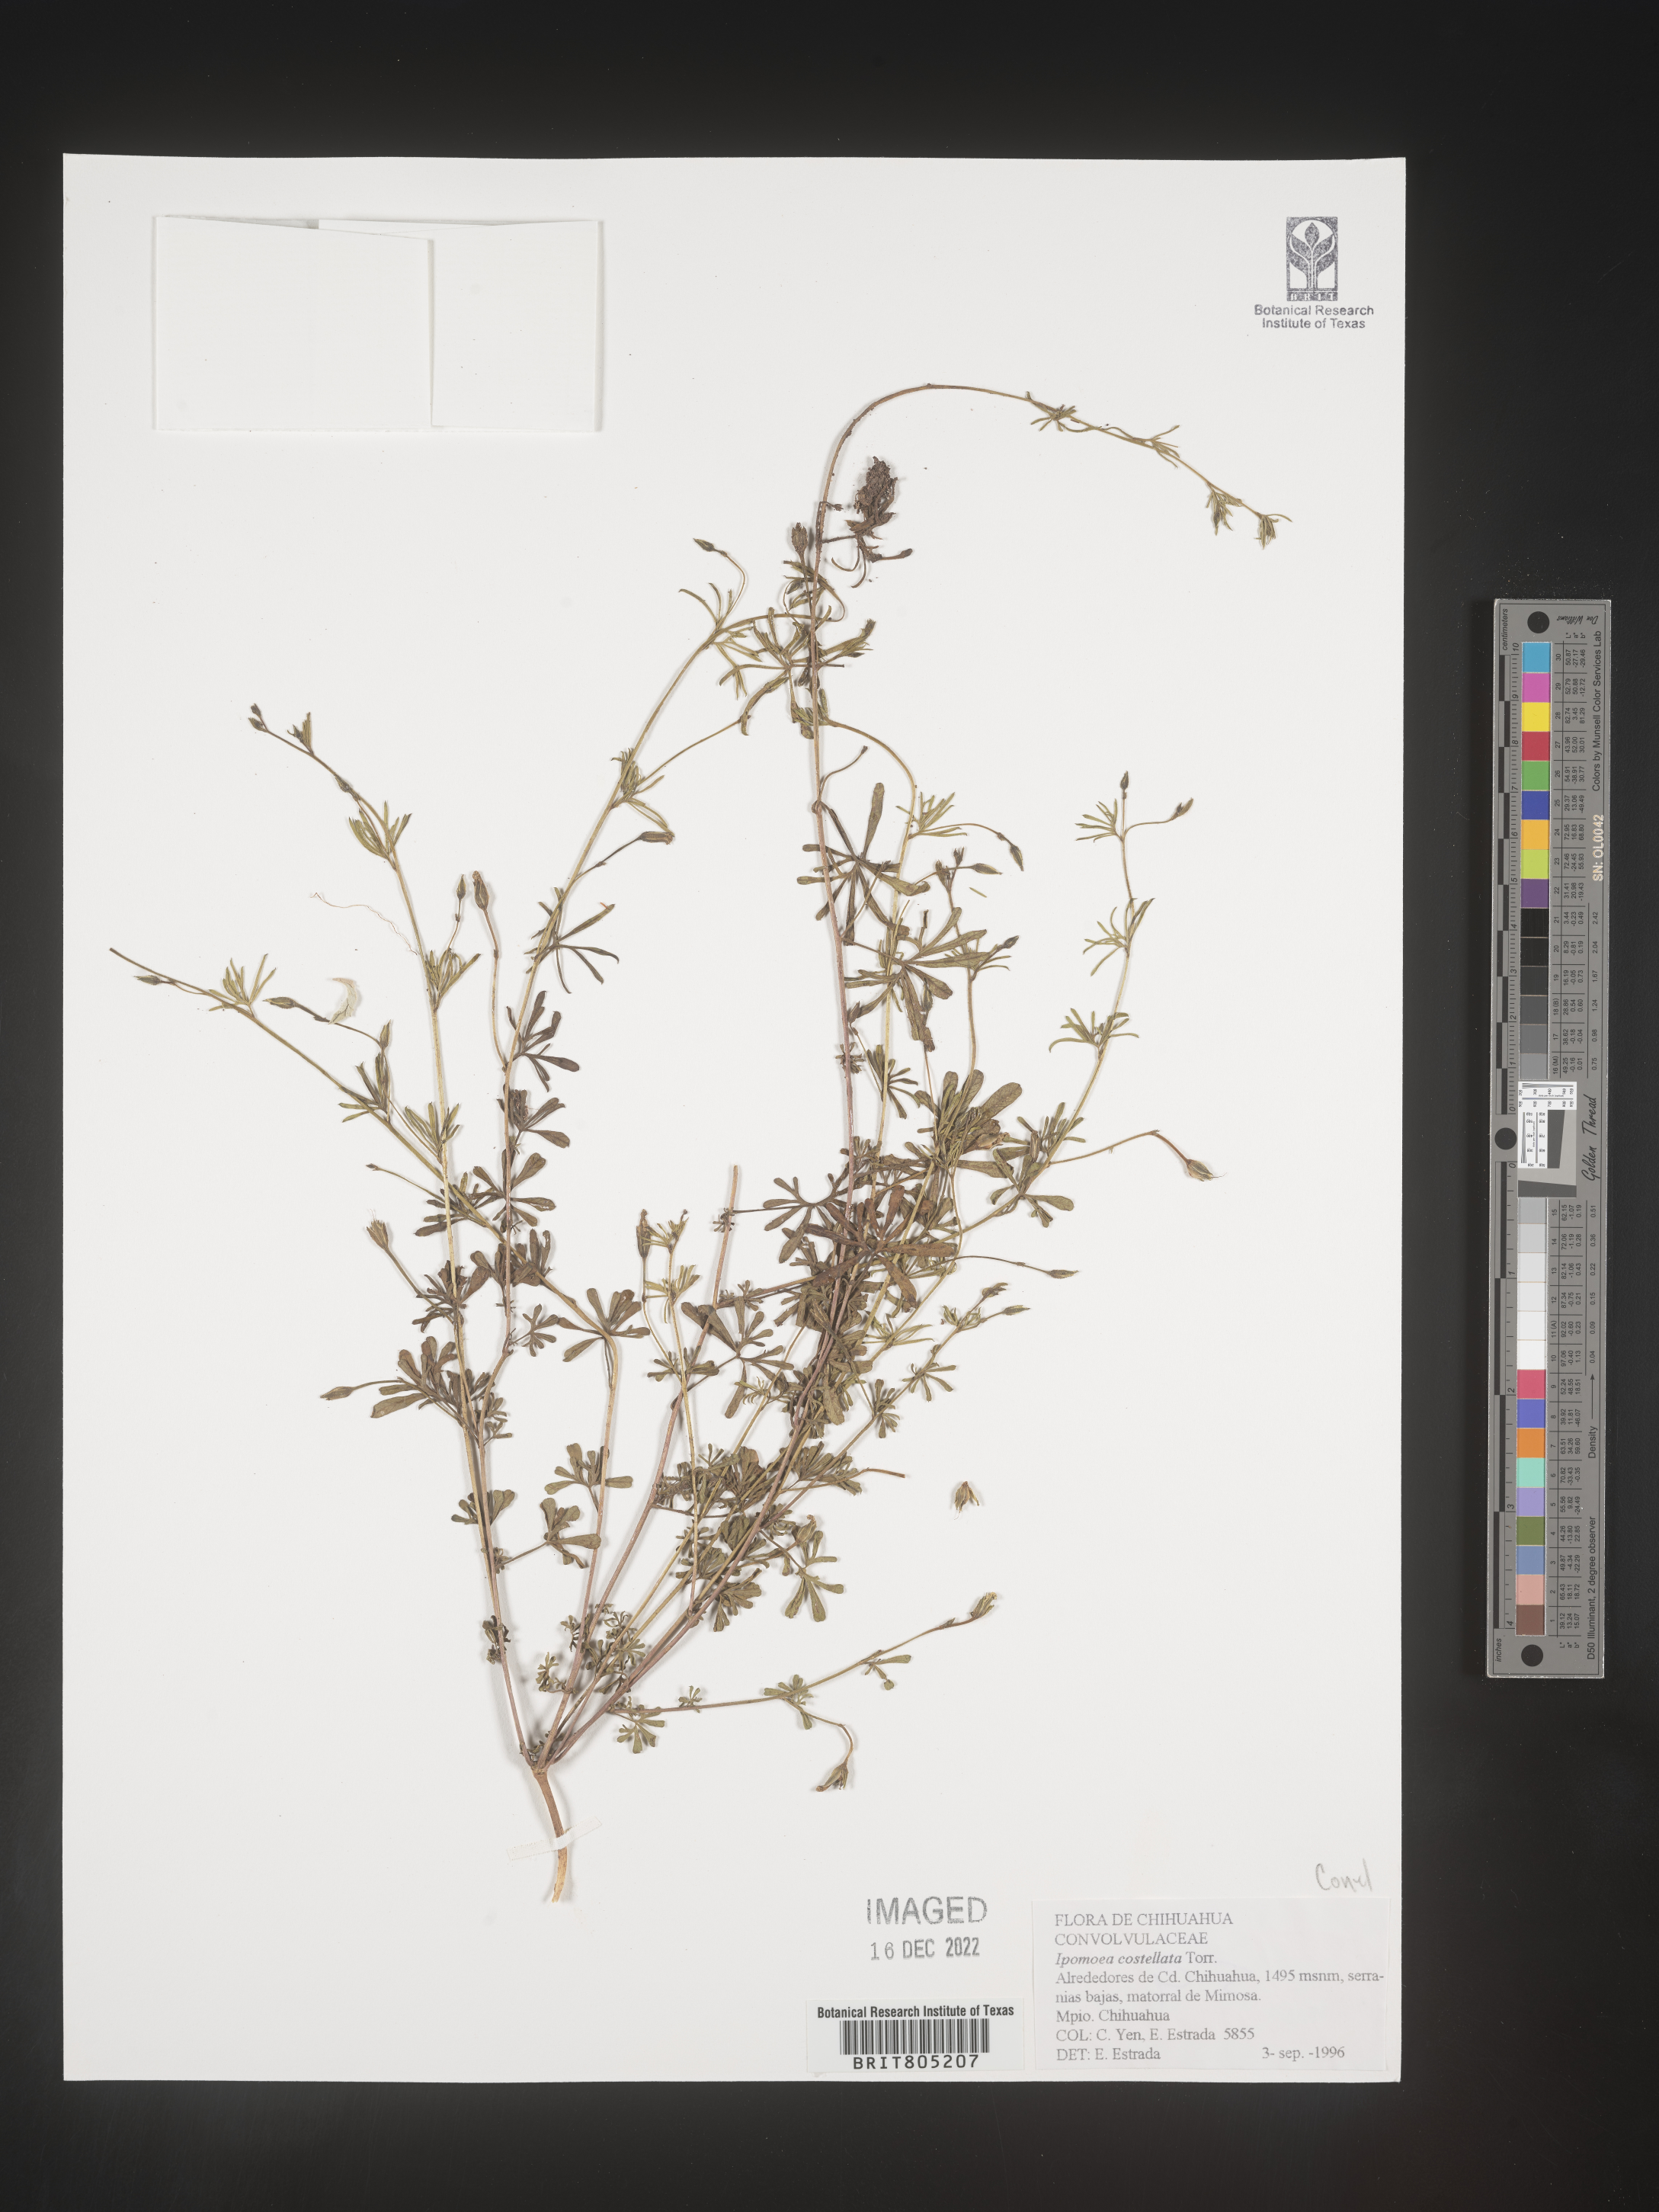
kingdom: Plantae
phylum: Tracheophyta
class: Magnoliopsida
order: Solanales
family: Convolvulaceae
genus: Ipomoea
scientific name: Ipomoea
